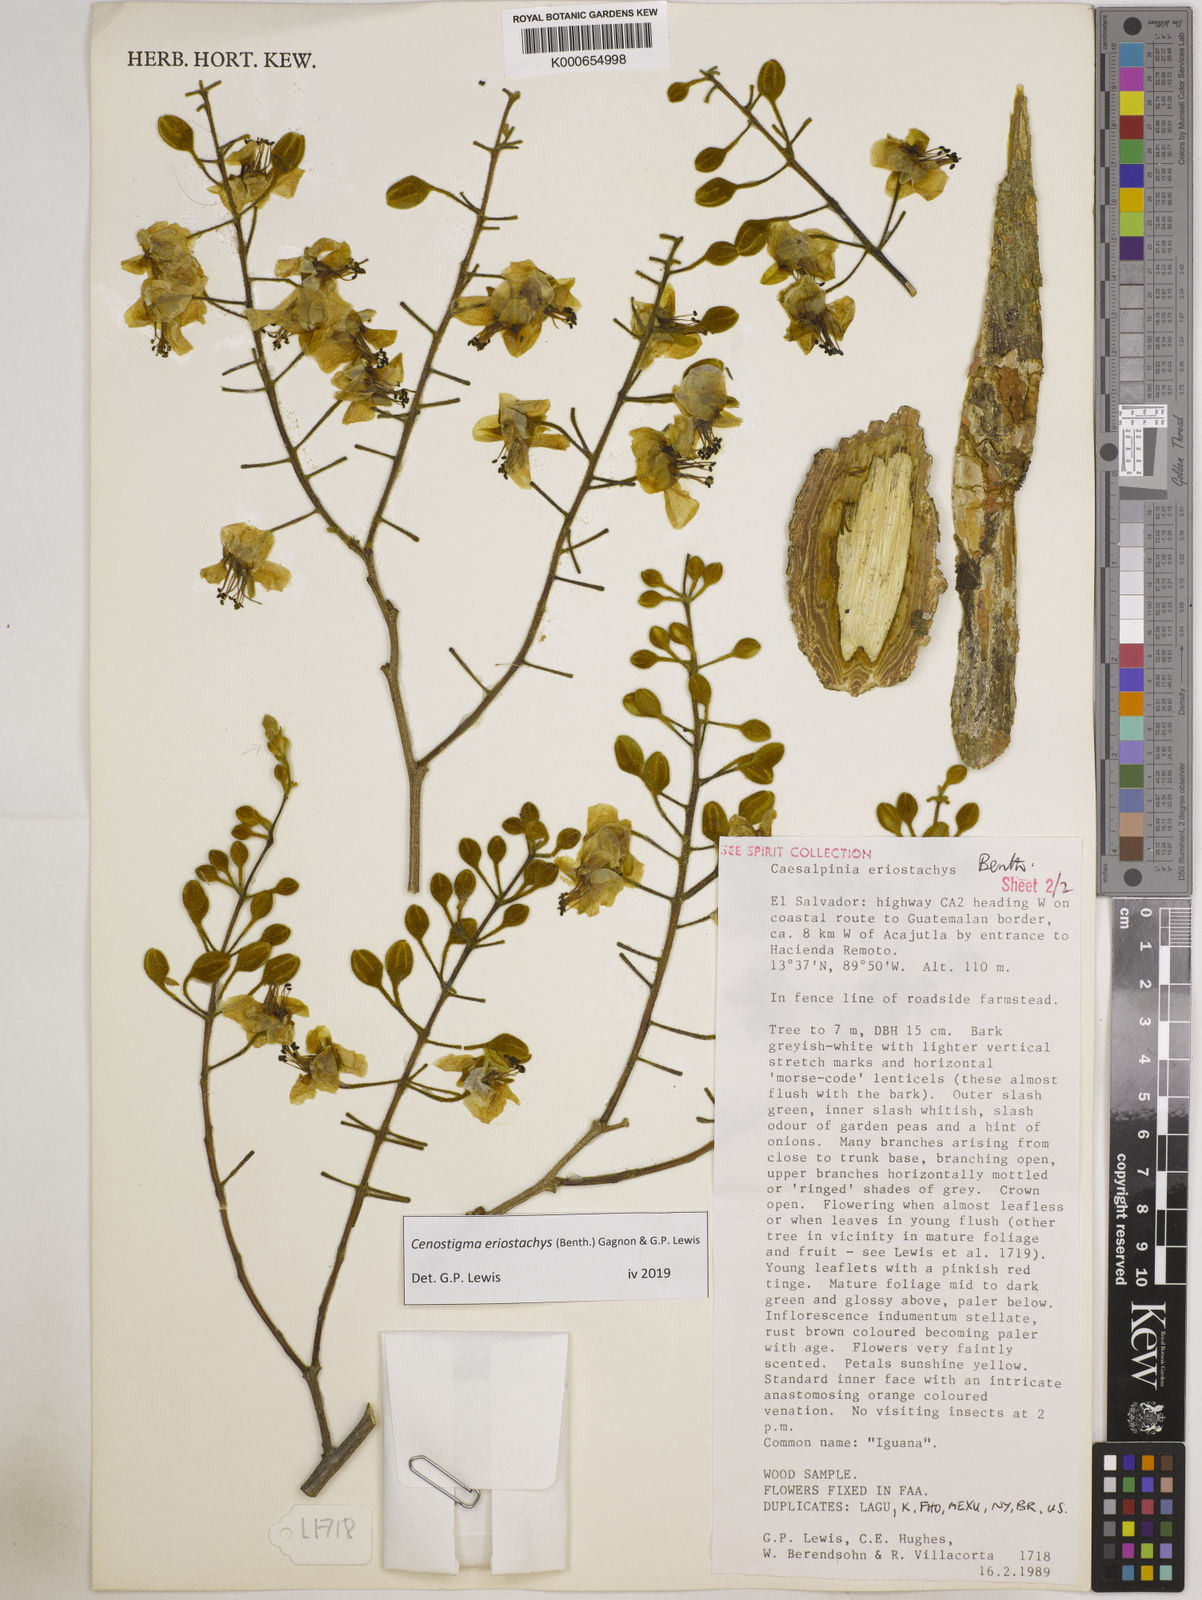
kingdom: Plantae
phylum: Tracheophyta
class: Magnoliopsida
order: Fabales
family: Fabaceae
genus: Cenostigma
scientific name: Cenostigma eriostachys
